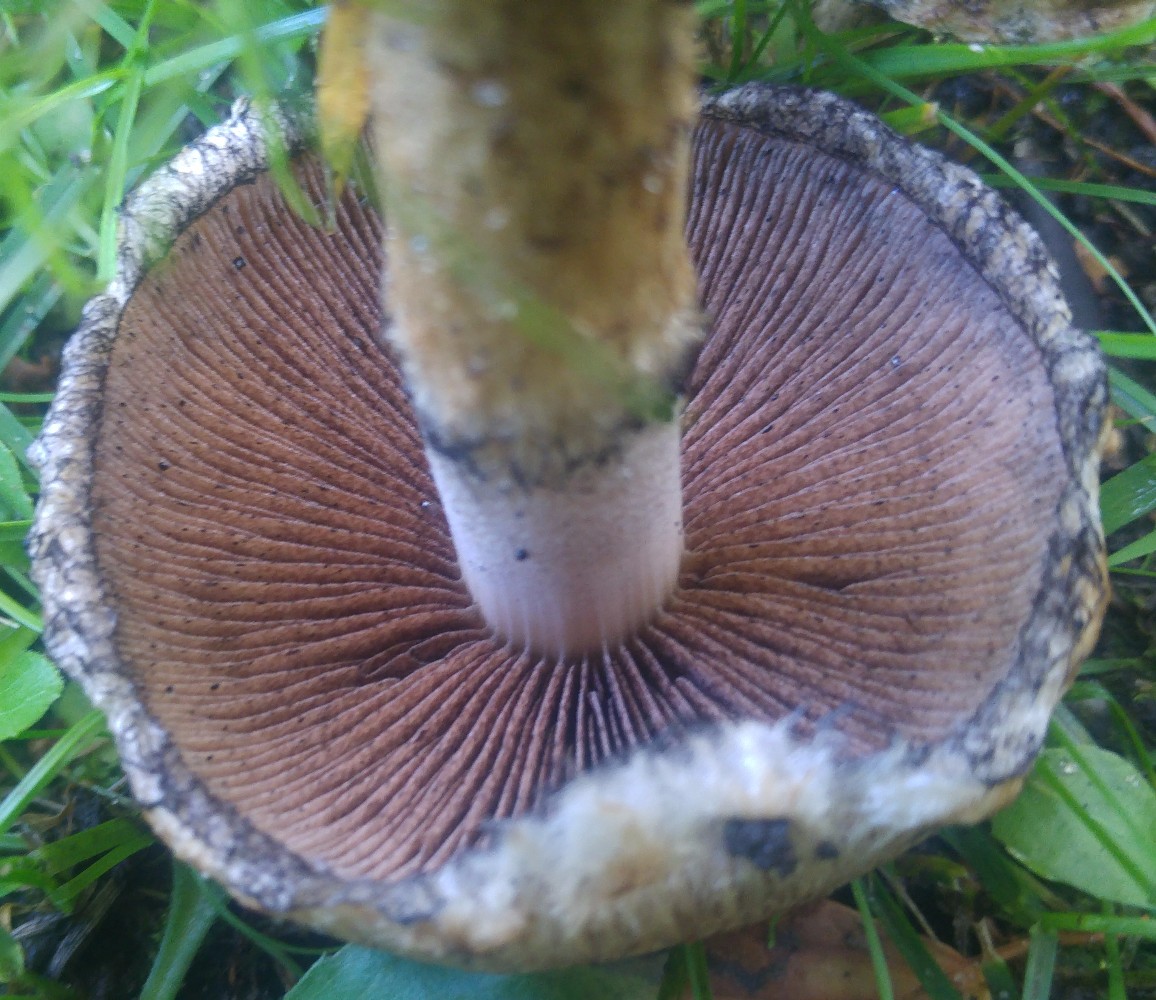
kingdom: Fungi
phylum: Basidiomycota
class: Agaricomycetes
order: Agaricales
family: Psathyrellaceae
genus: Lacrymaria
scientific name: Lacrymaria lacrymabunda
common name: grædende mørkhat
